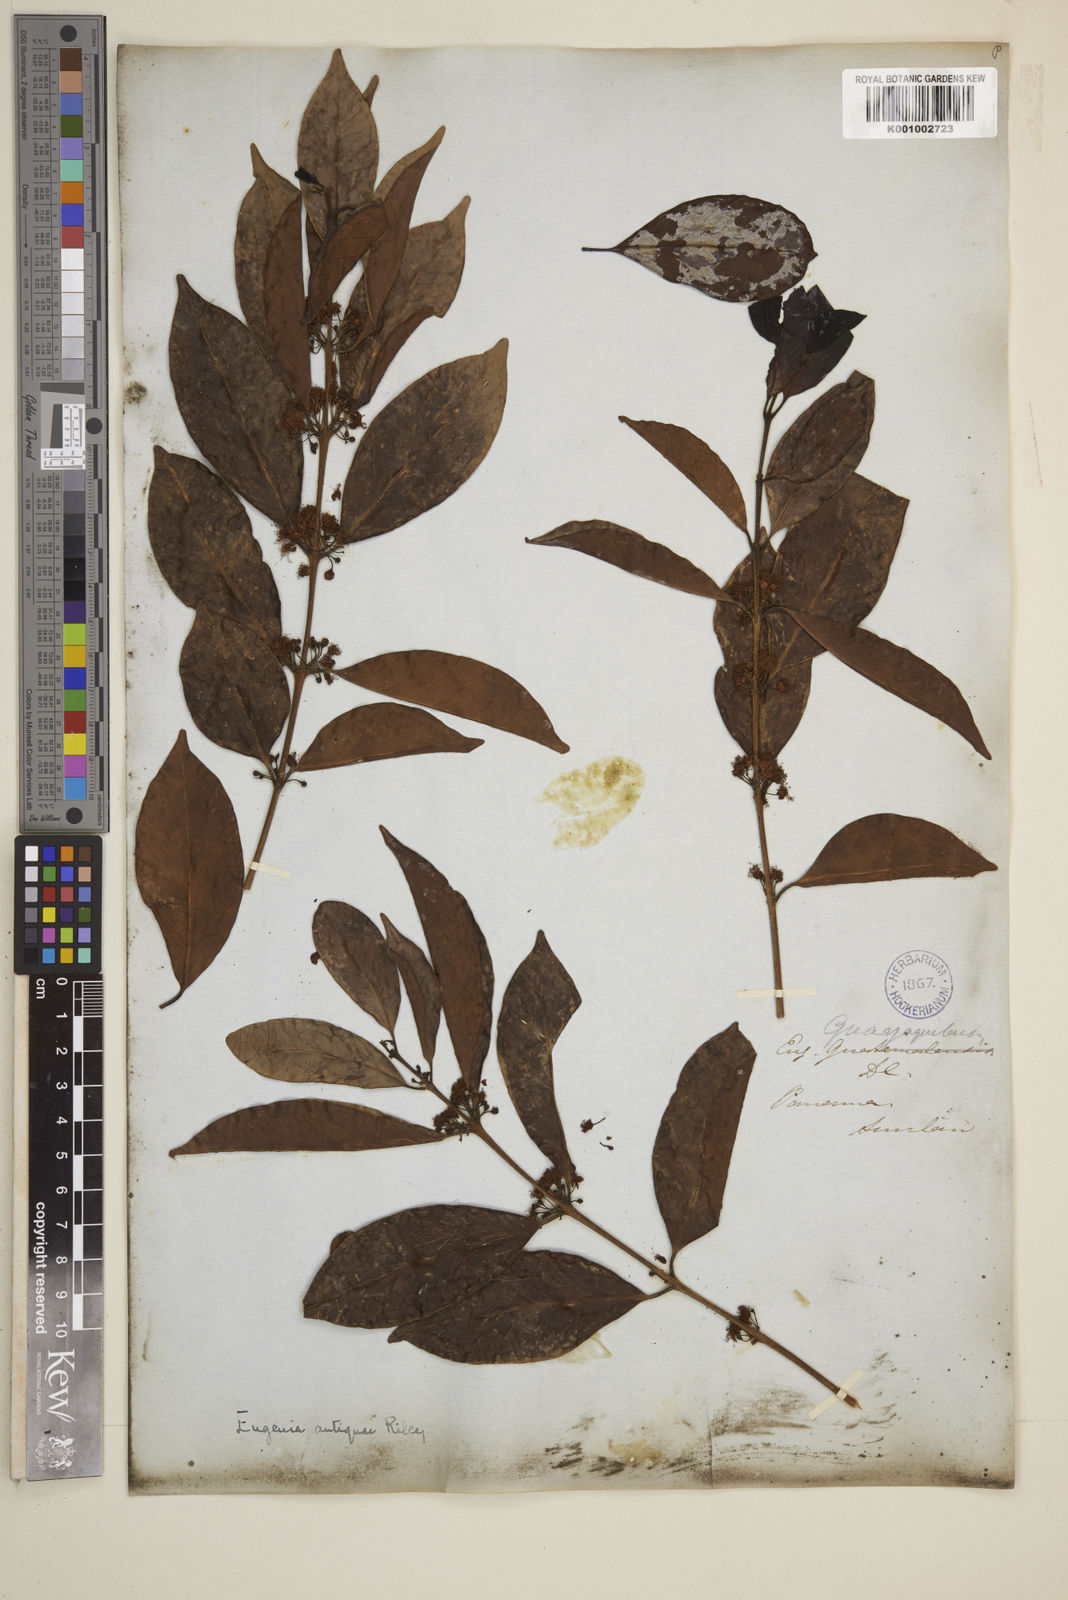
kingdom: Plantae
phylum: Tracheophyta
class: Magnoliopsida
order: Myrtales
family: Myrtaceae
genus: Eugenia
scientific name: Eugenia acapulcensis
